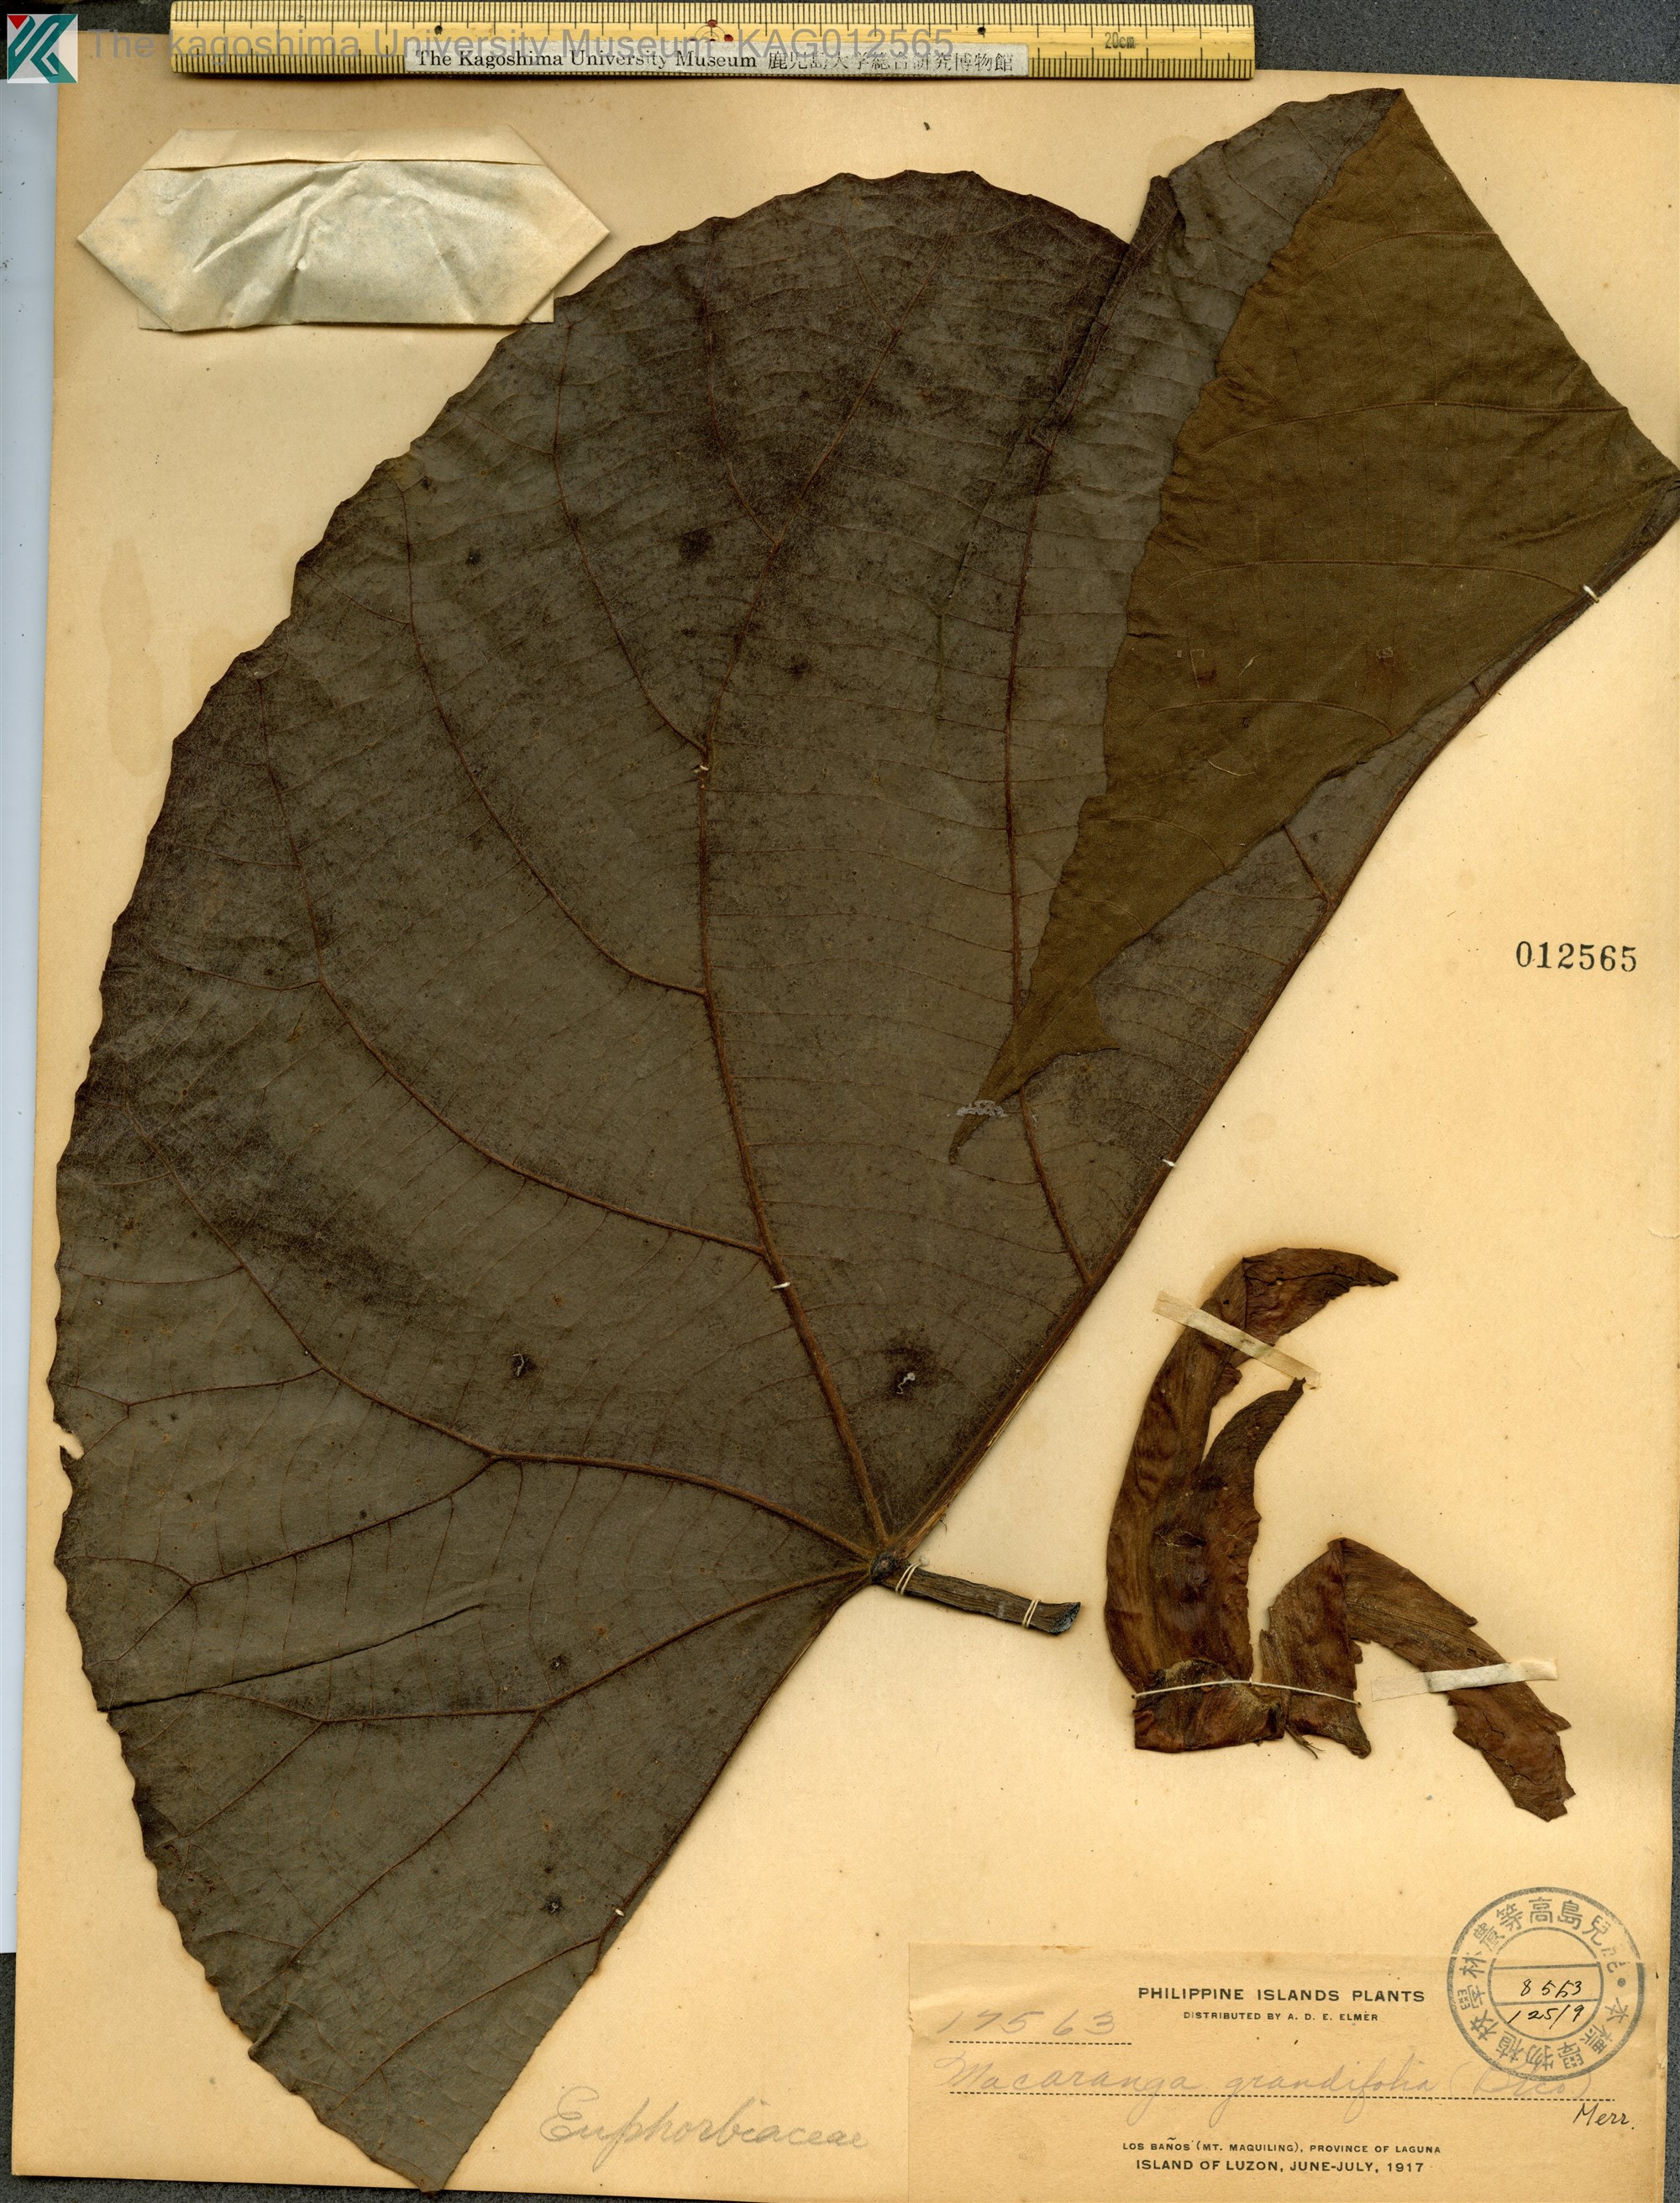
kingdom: Plantae
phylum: Tracheophyta
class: Magnoliopsida
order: Malpighiales
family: Euphorbiaceae
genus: Macaranga
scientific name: Macaranga grandifolia
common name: Coraltree
